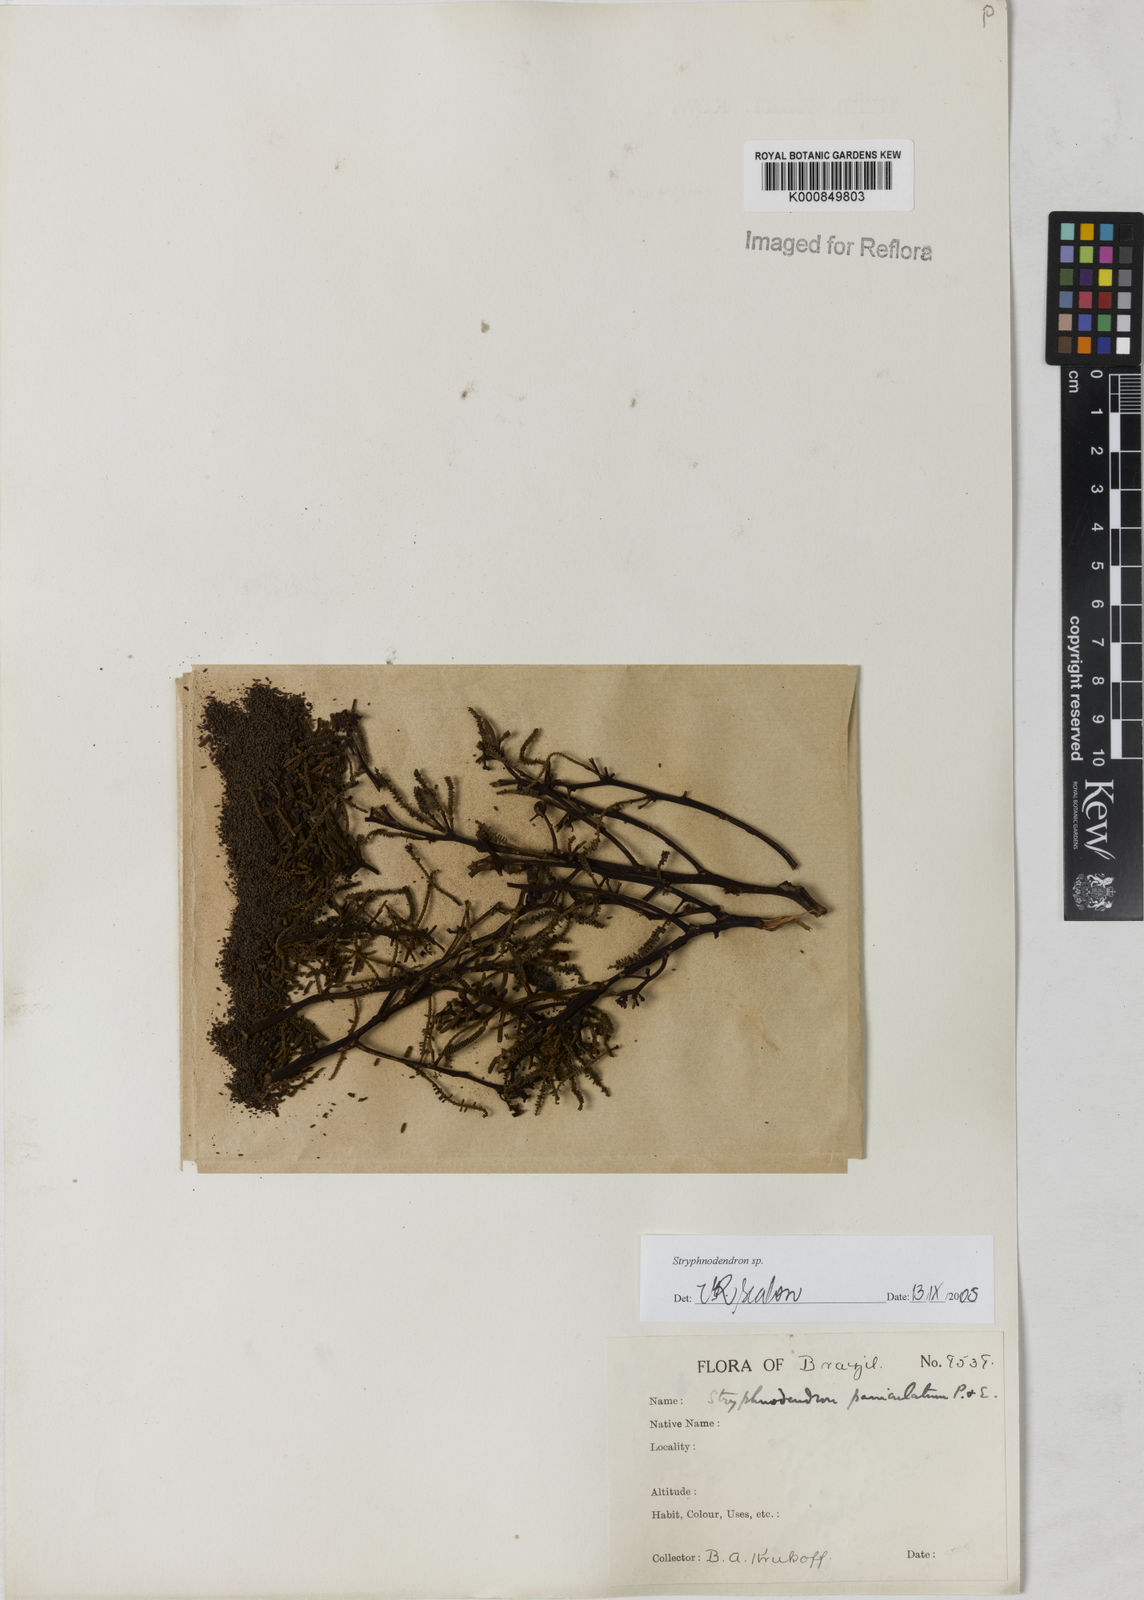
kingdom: Plantae
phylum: Tracheophyta
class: Magnoliopsida
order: Fabales
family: Fabaceae
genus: Stryphnodendron
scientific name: Stryphnodendron
